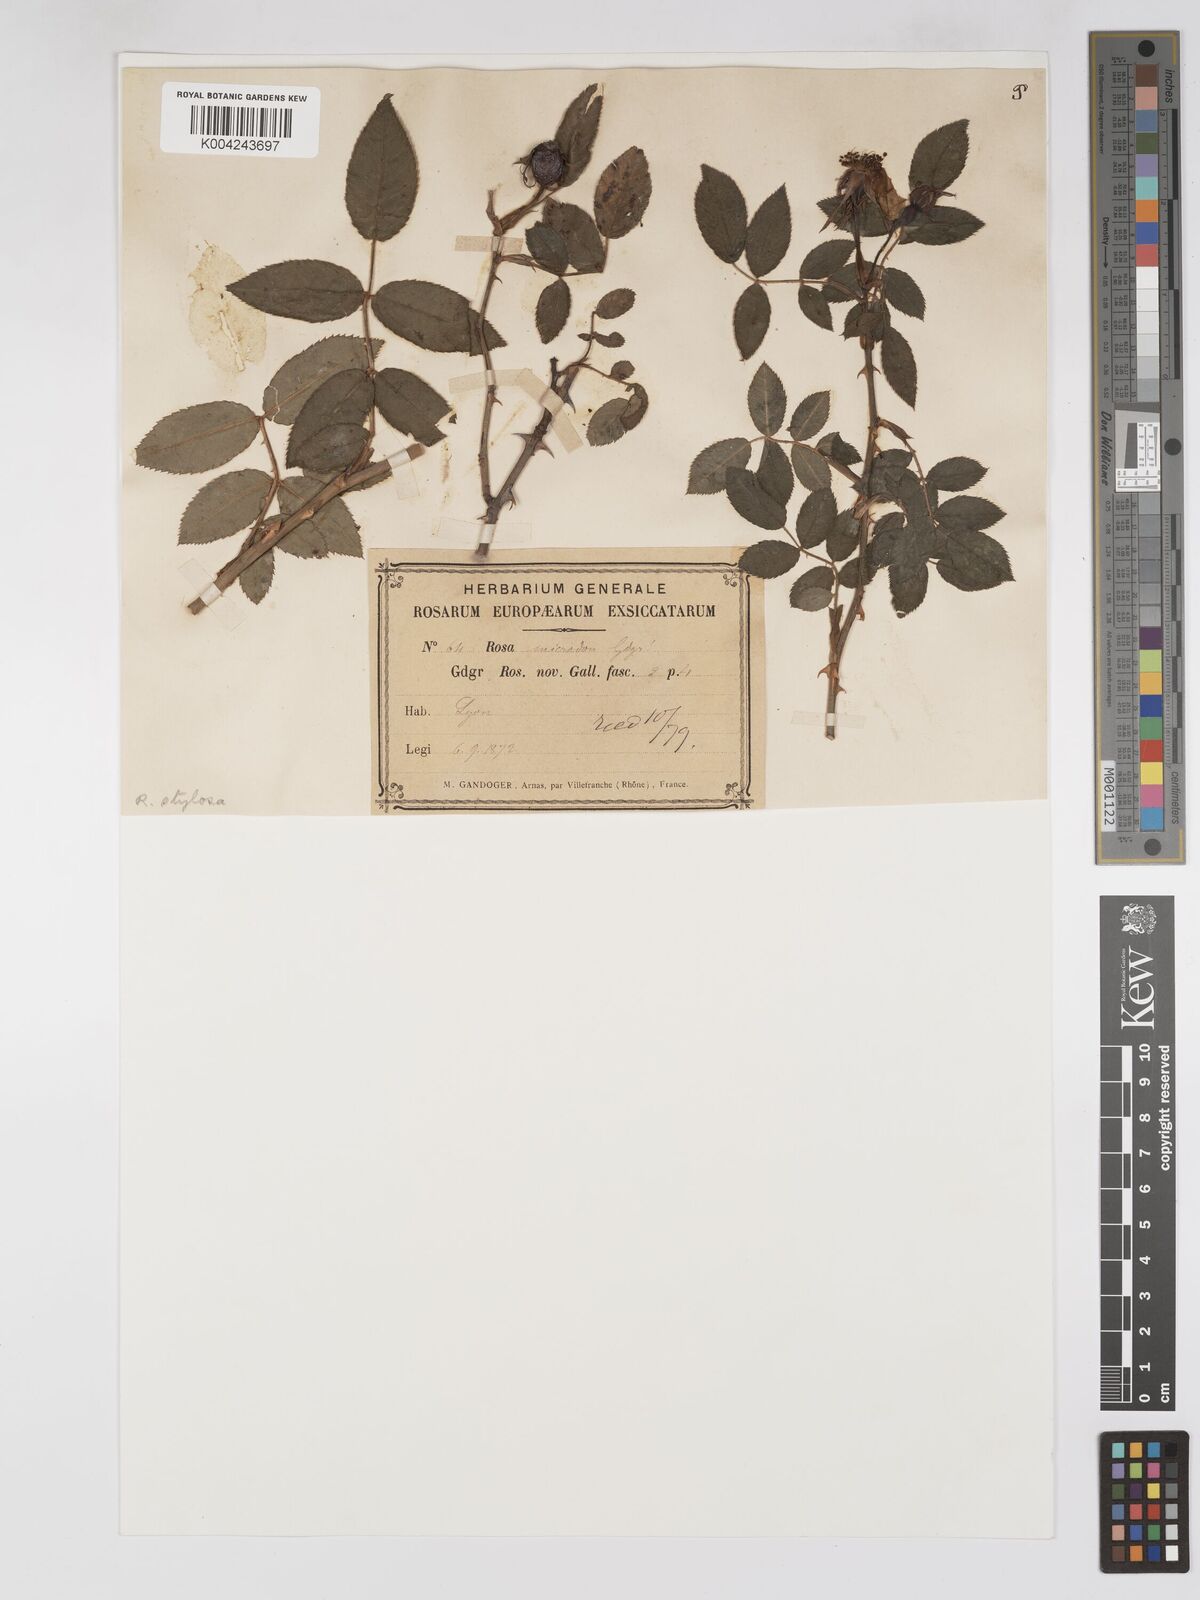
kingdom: Plantae
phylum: Tracheophyta
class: Magnoliopsida
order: Rosales
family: Rosaceae
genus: Rosa
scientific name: Rosa arvensis
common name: Field rose
